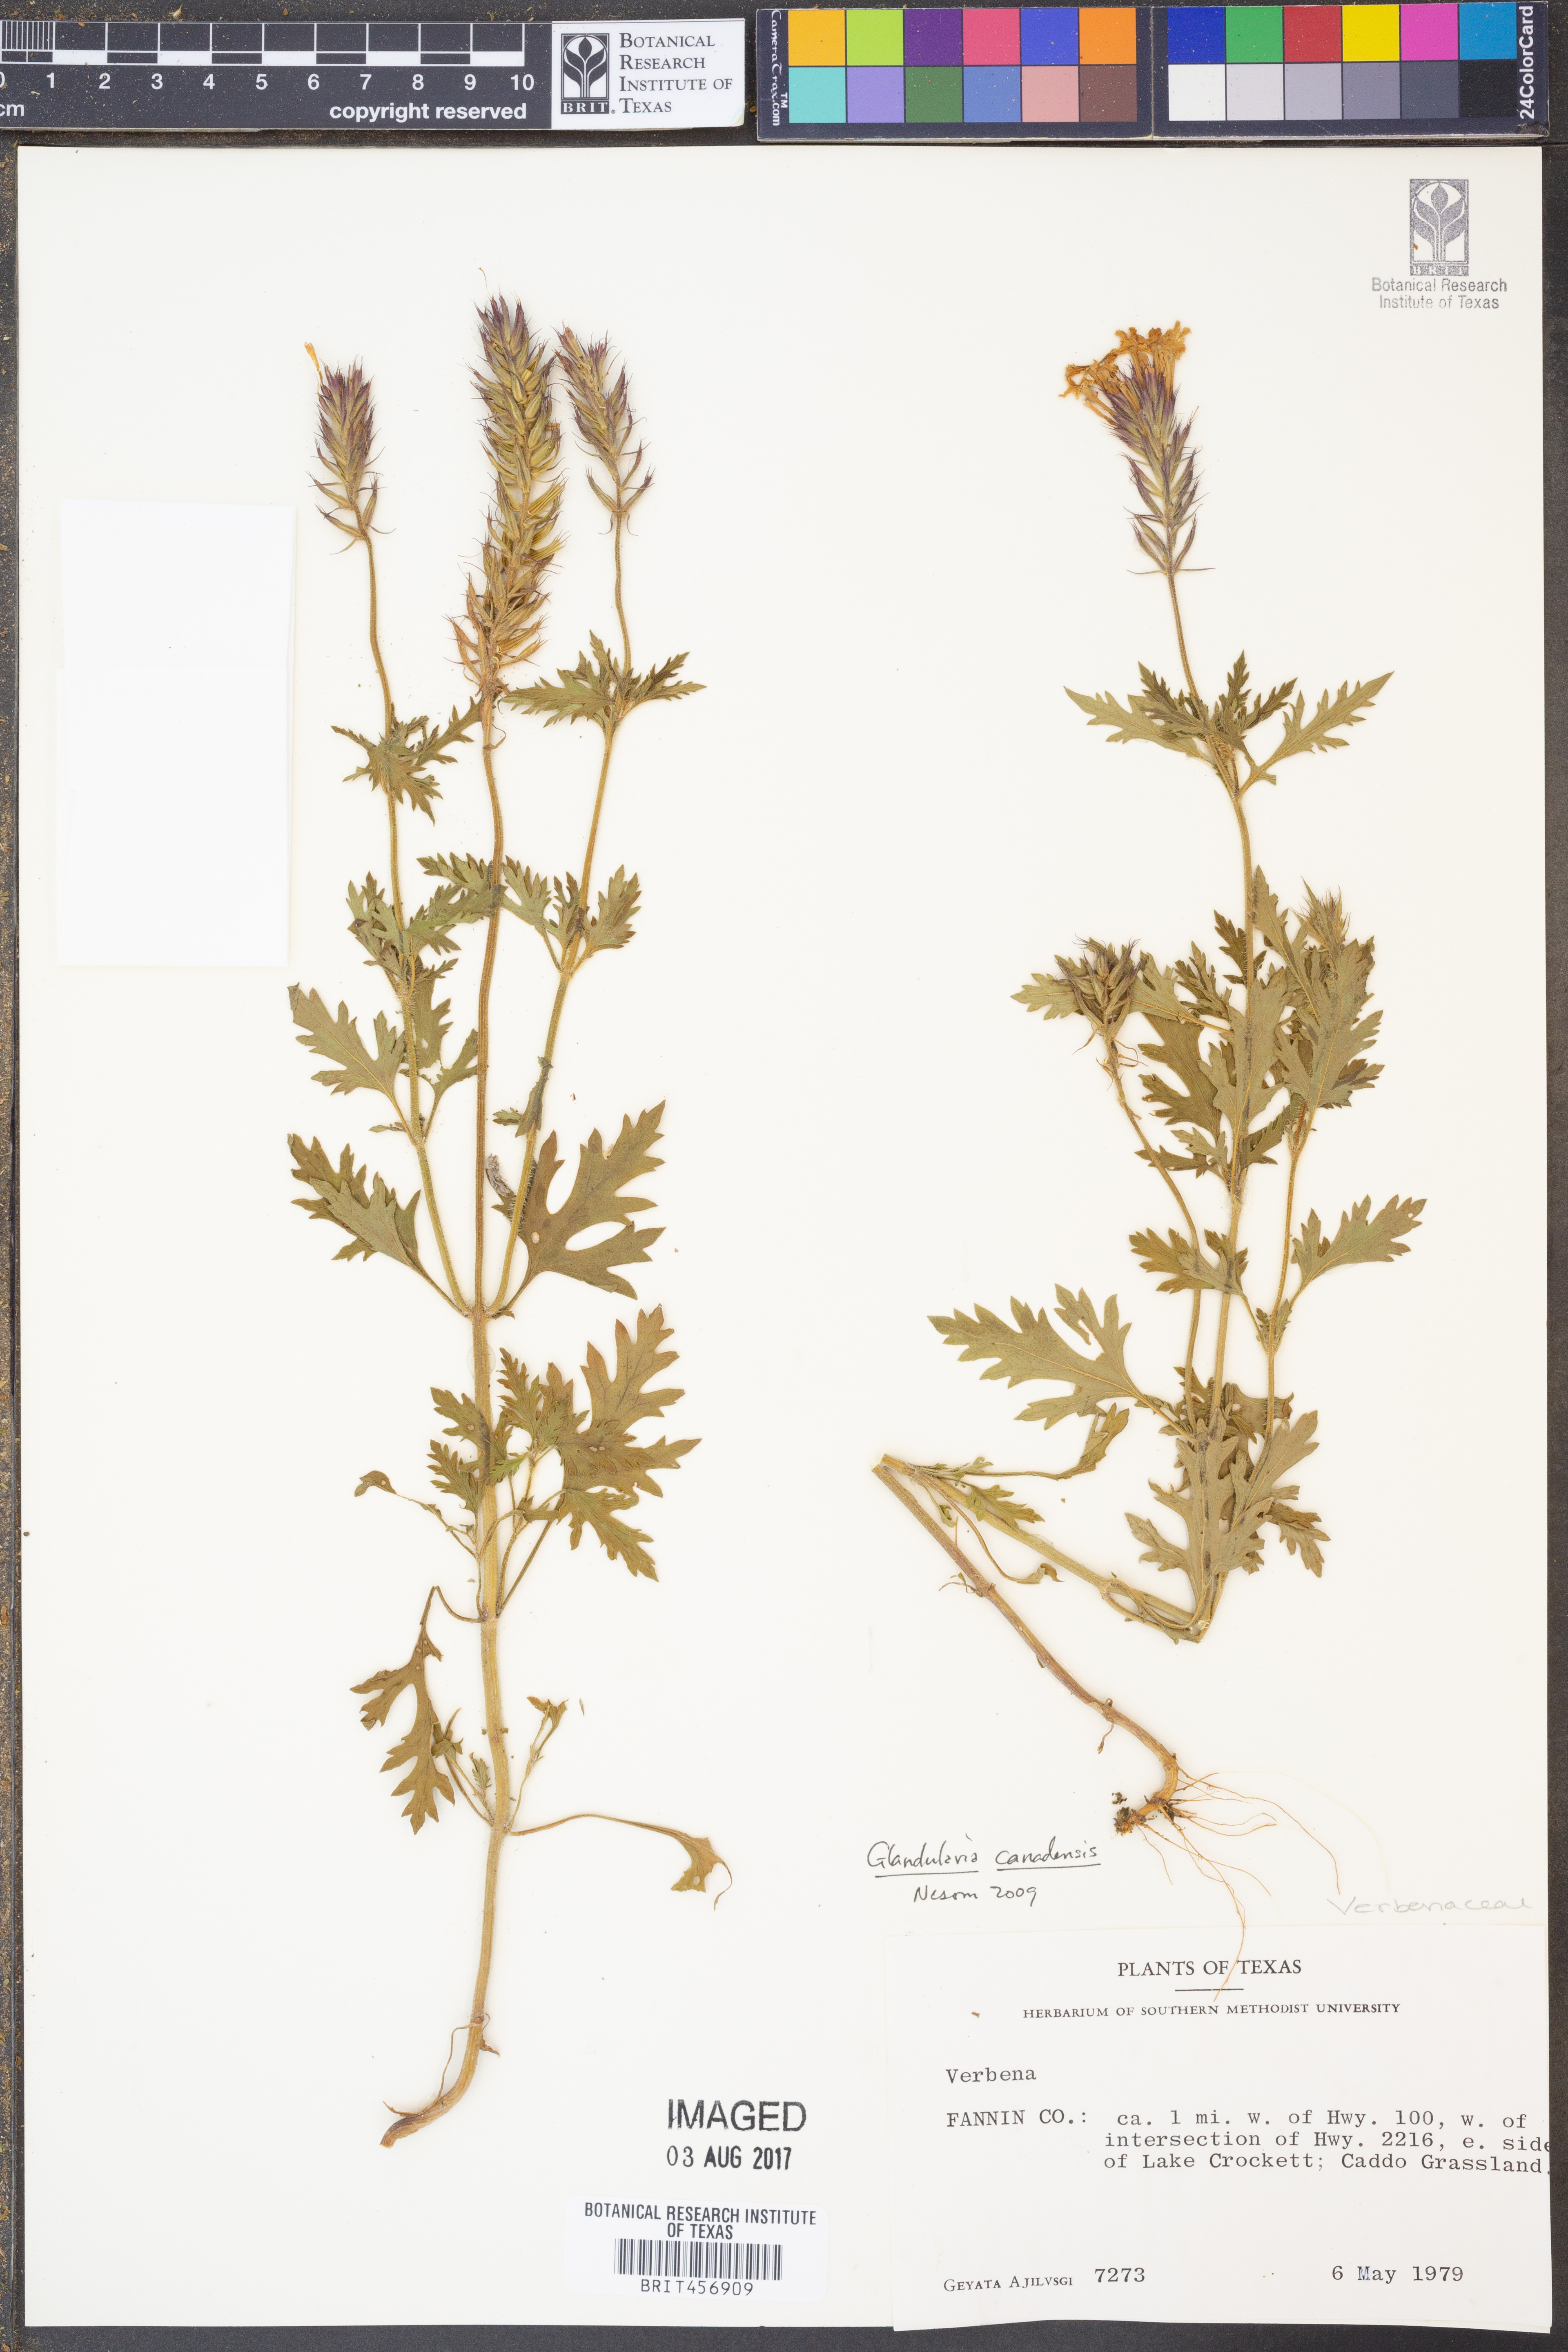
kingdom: Plantae
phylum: Tracheophyta
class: Magnoliopsida
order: Lamiales
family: Verbenaceae
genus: Verbena
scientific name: Verbena canadensis
